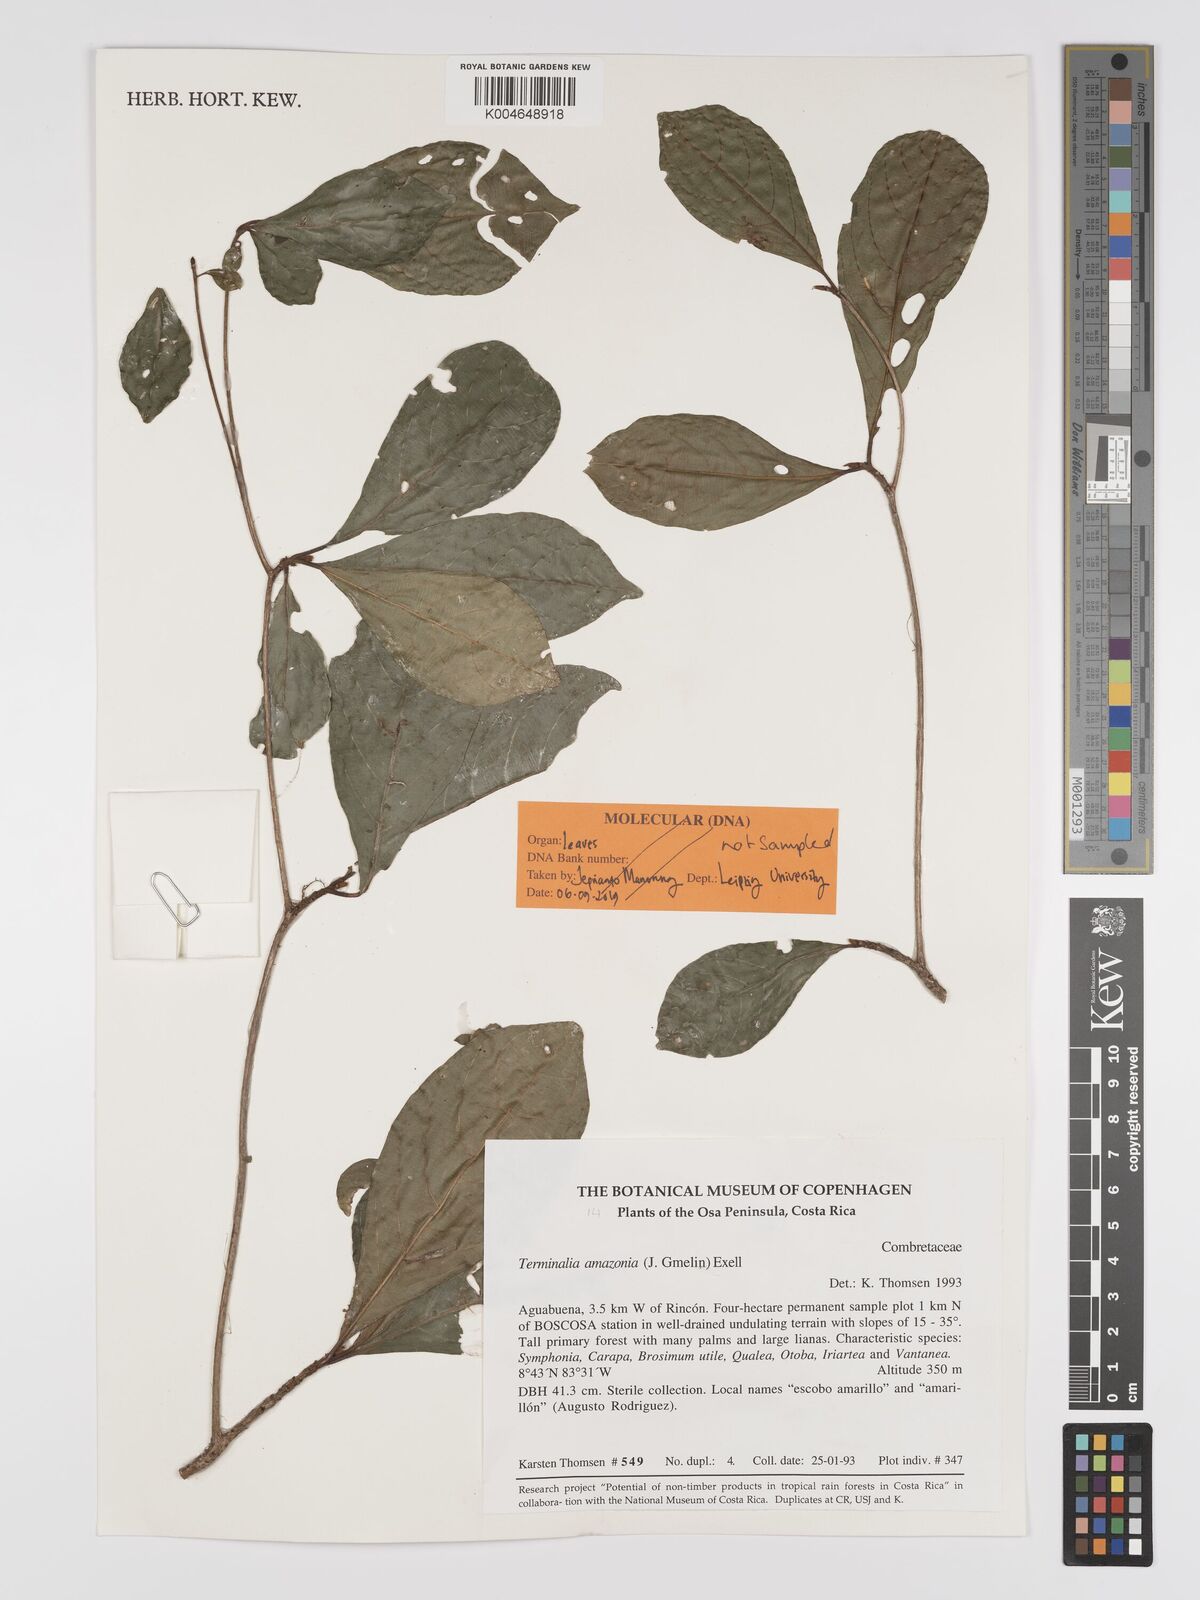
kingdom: Plantae
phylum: Tracheophyta
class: Magnoliopsida
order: Myrtales
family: Combretaceae
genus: Terminalia
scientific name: Terminalia amazonica
